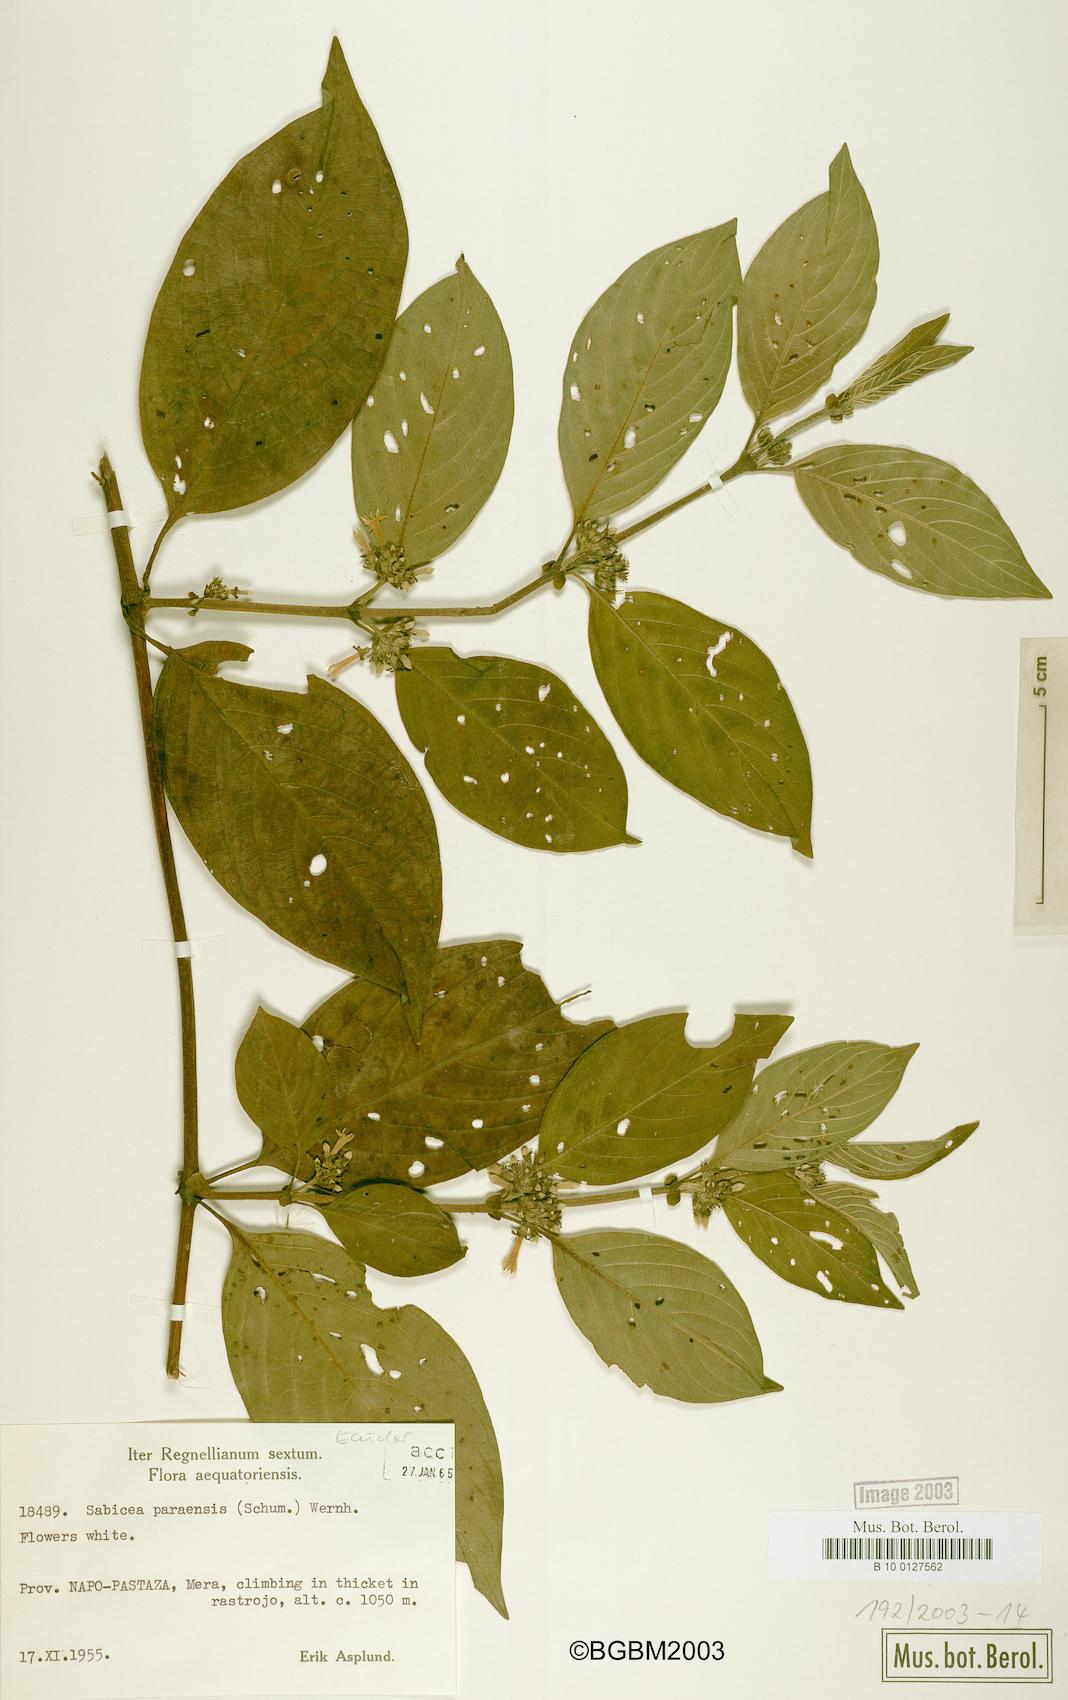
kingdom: Plantae
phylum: Tracheophyta
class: Magnoliopsida
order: Gentianales
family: Rubiaceae
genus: Sabicea
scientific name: Sabicea panamensis
